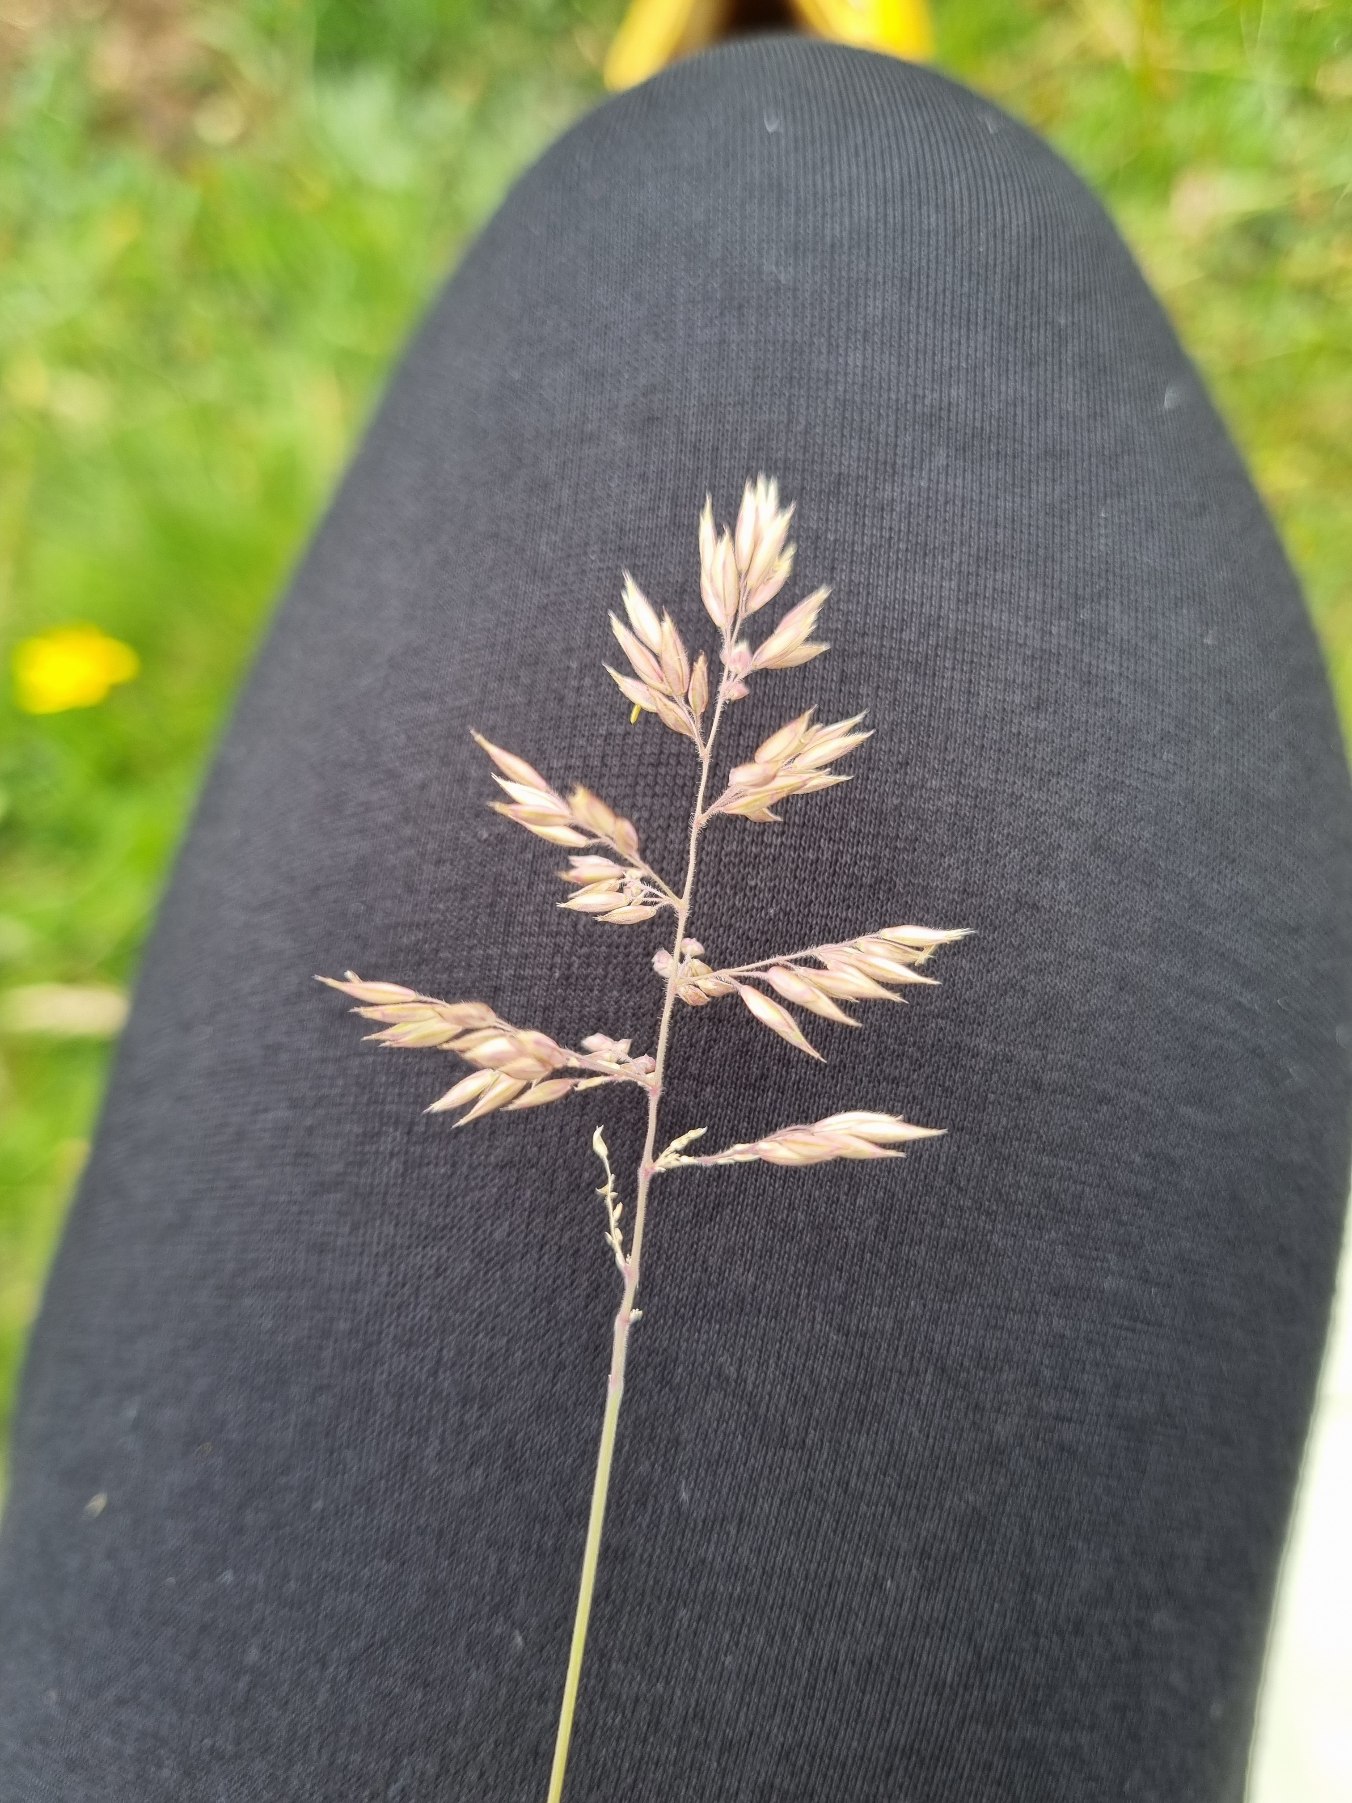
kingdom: Plantae
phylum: Tracheophyta
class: Liliopsida
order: Poales
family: Poaceae
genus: Holcus
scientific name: Holcus lanatus
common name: Fløjlsgræs
